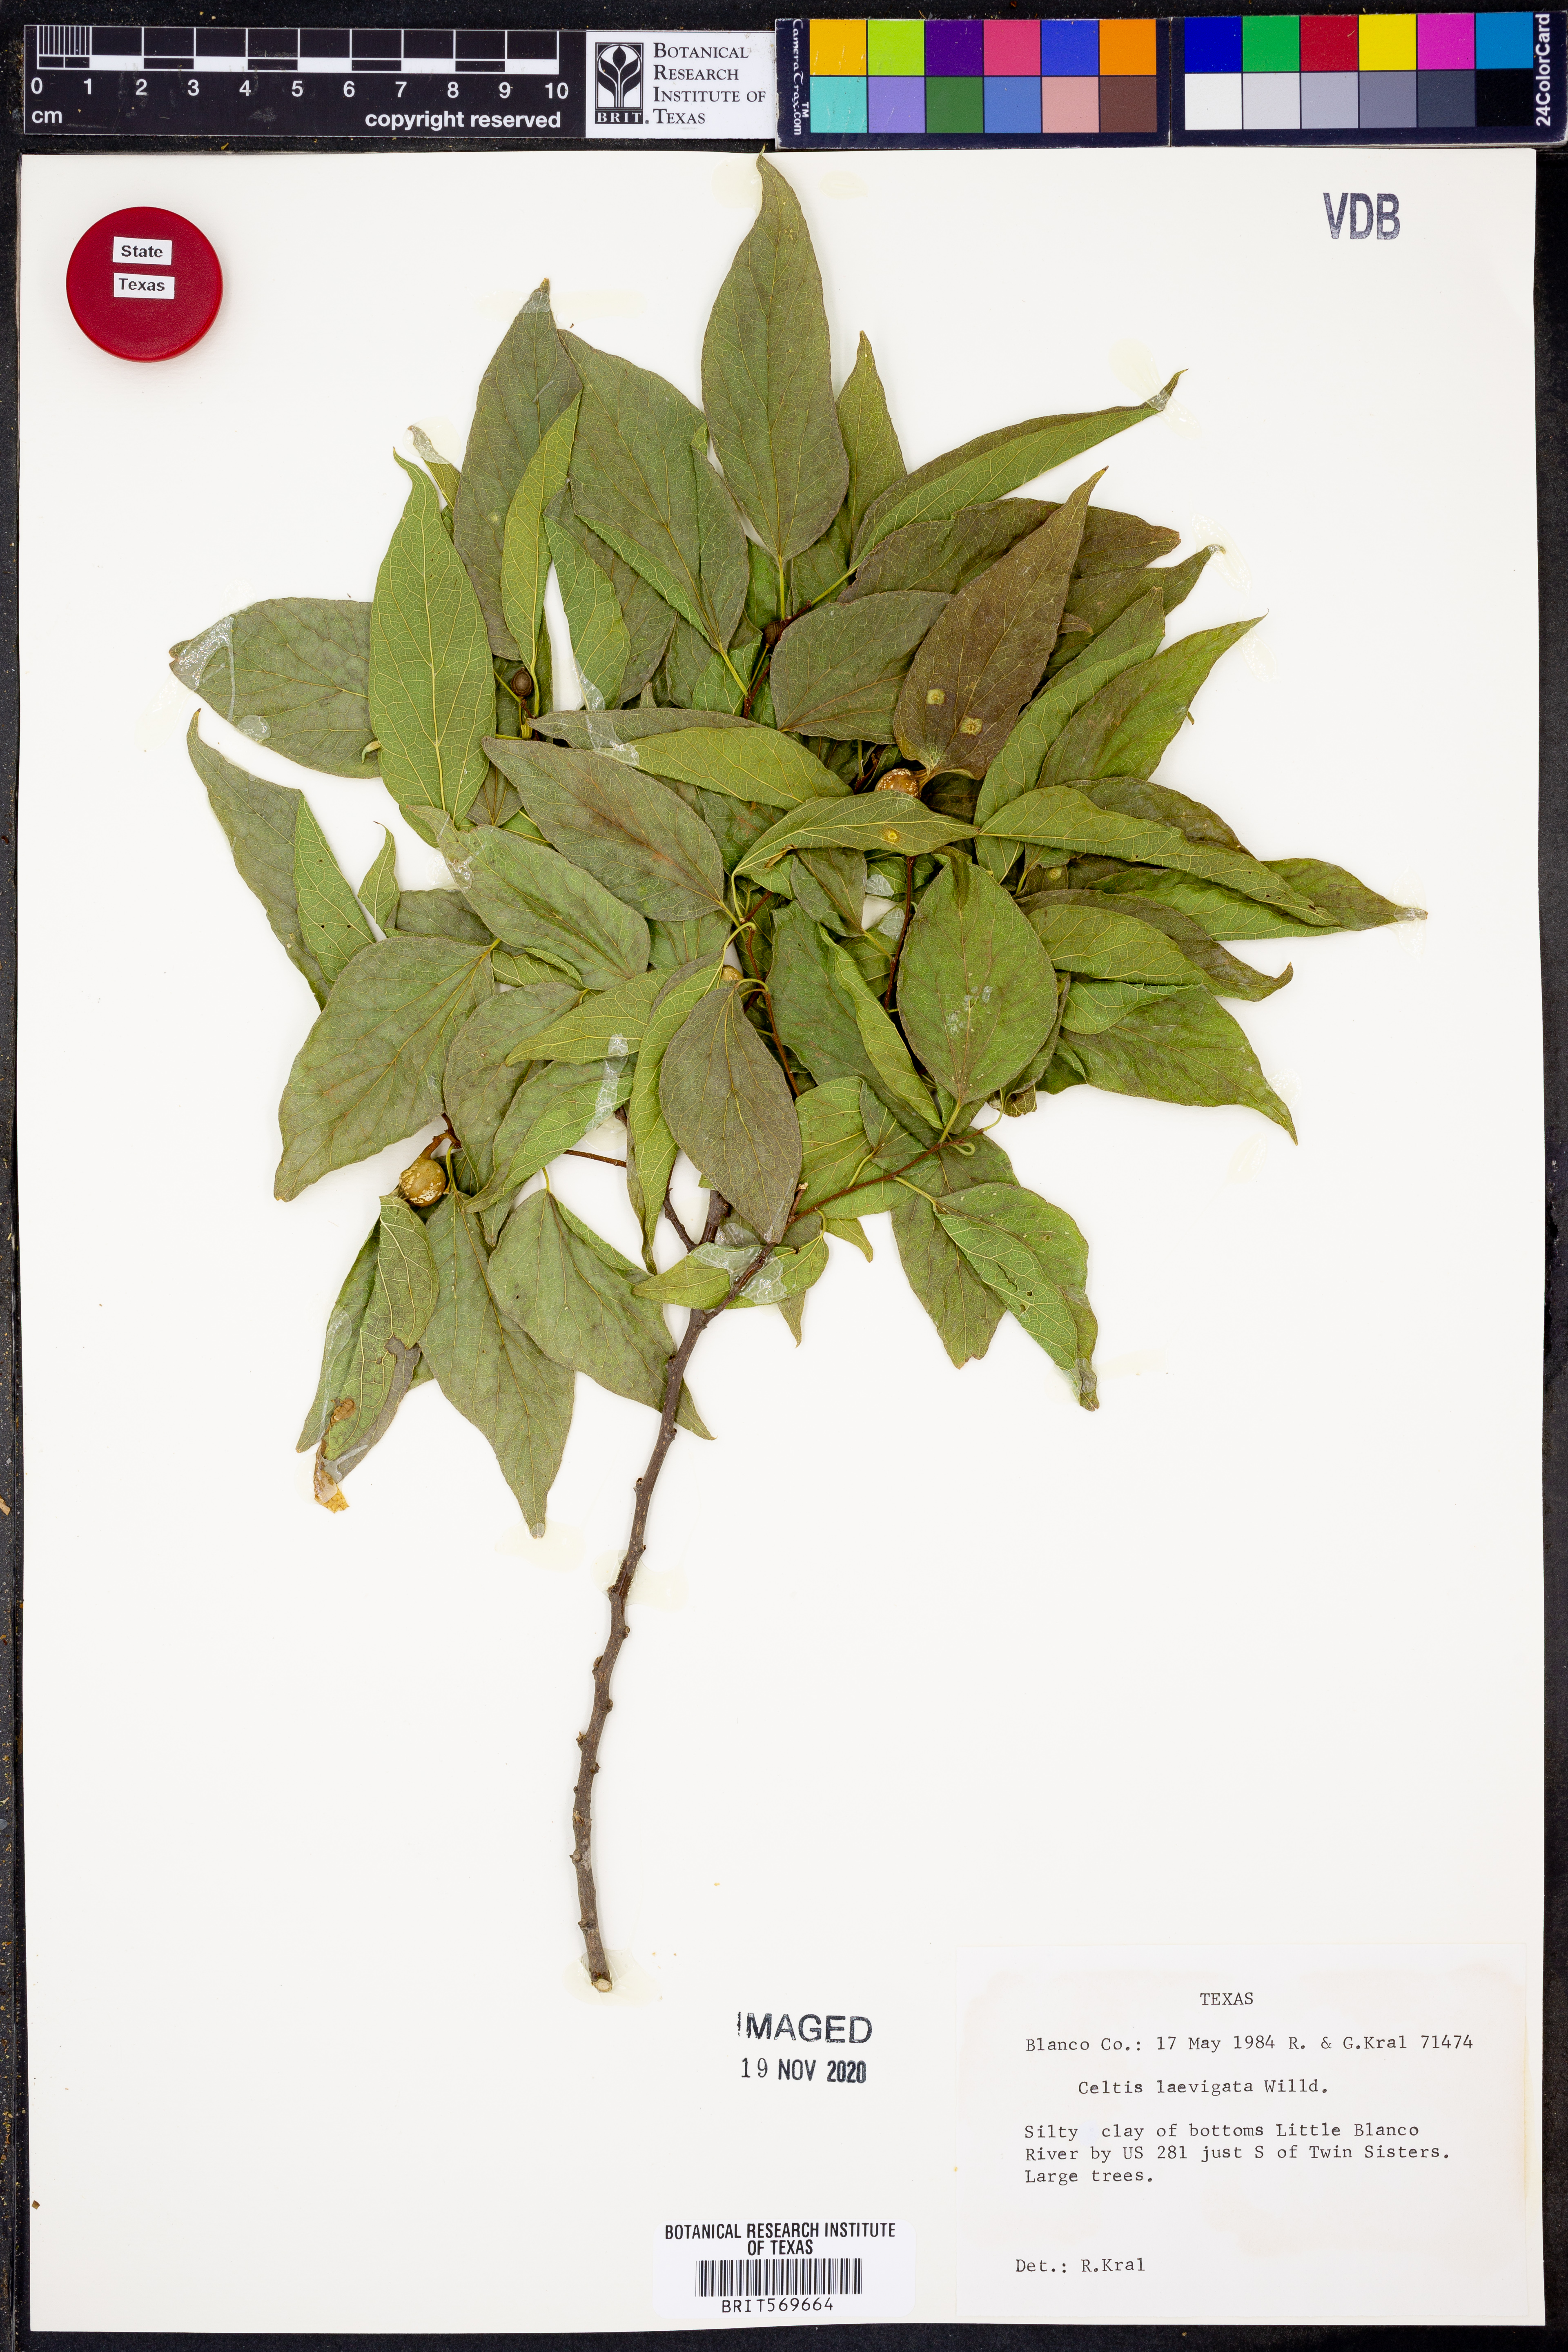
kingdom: Plantae
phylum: Tracheophyta
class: Magnoliopsida
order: Rosales
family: Cannabaceae
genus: Celtis
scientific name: Celtis laevigata
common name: Sugarberry
